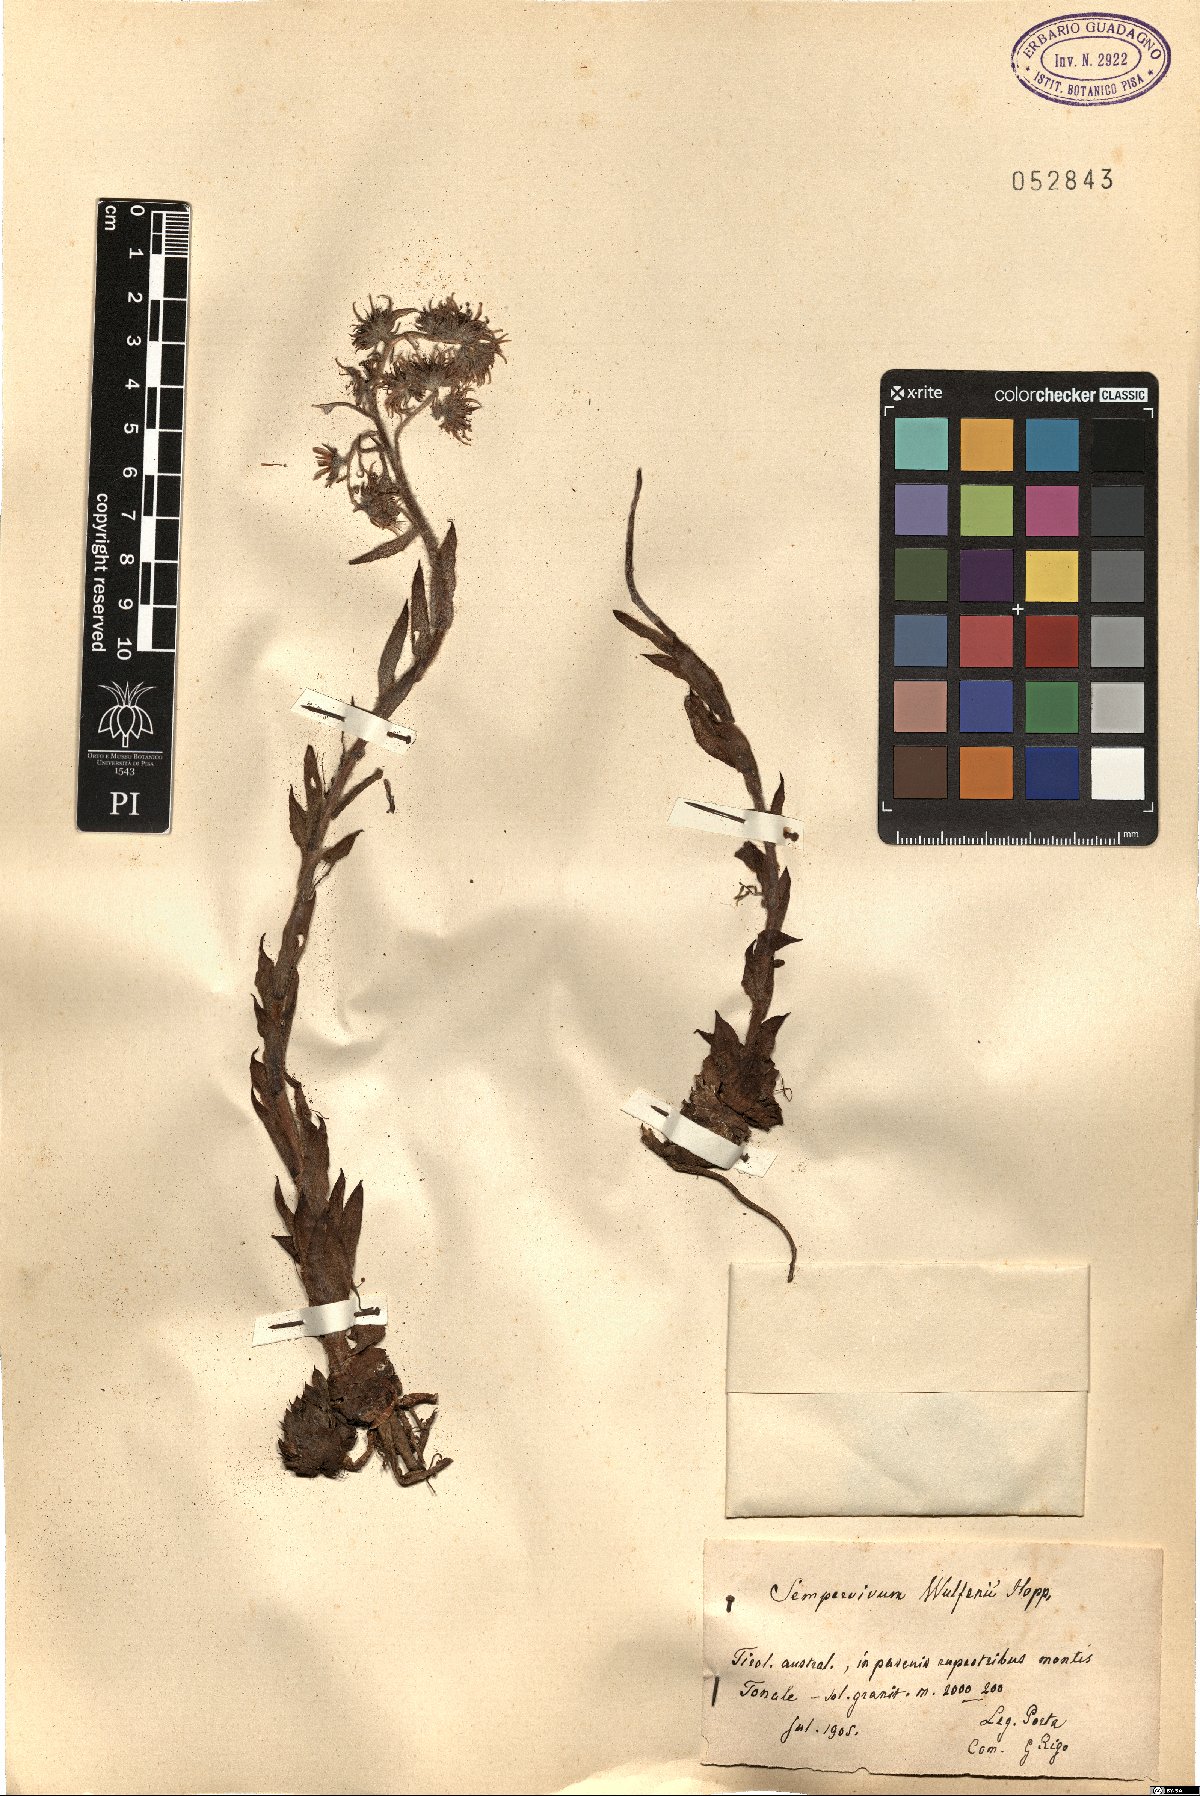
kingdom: Plantae
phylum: Tracheophyta
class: Magnoliopsida
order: Saxifragales
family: Crassulaceae
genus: Sempervivum
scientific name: Sempervivum wulfenii
